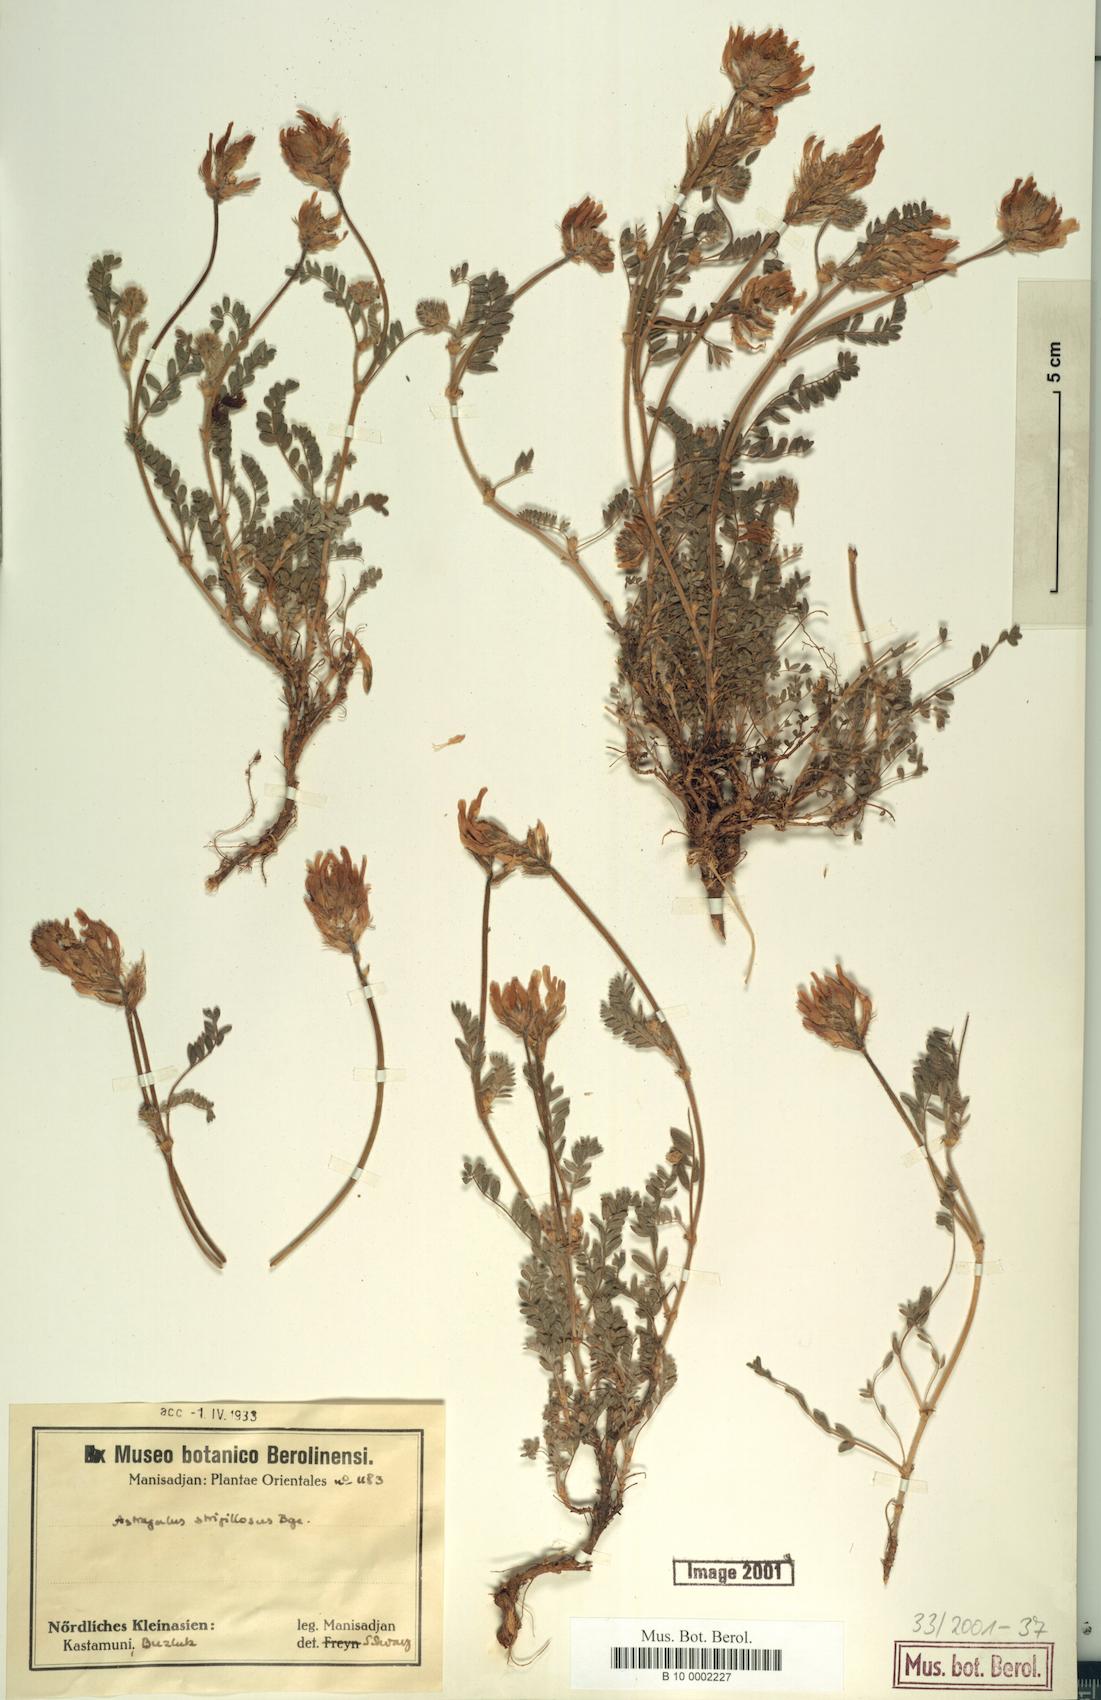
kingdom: Plantae
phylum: Tracheophyta
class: Magnoliopsida
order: Fabales
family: Fabaceae
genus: Astragalus
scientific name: Astragalus strigillosus
